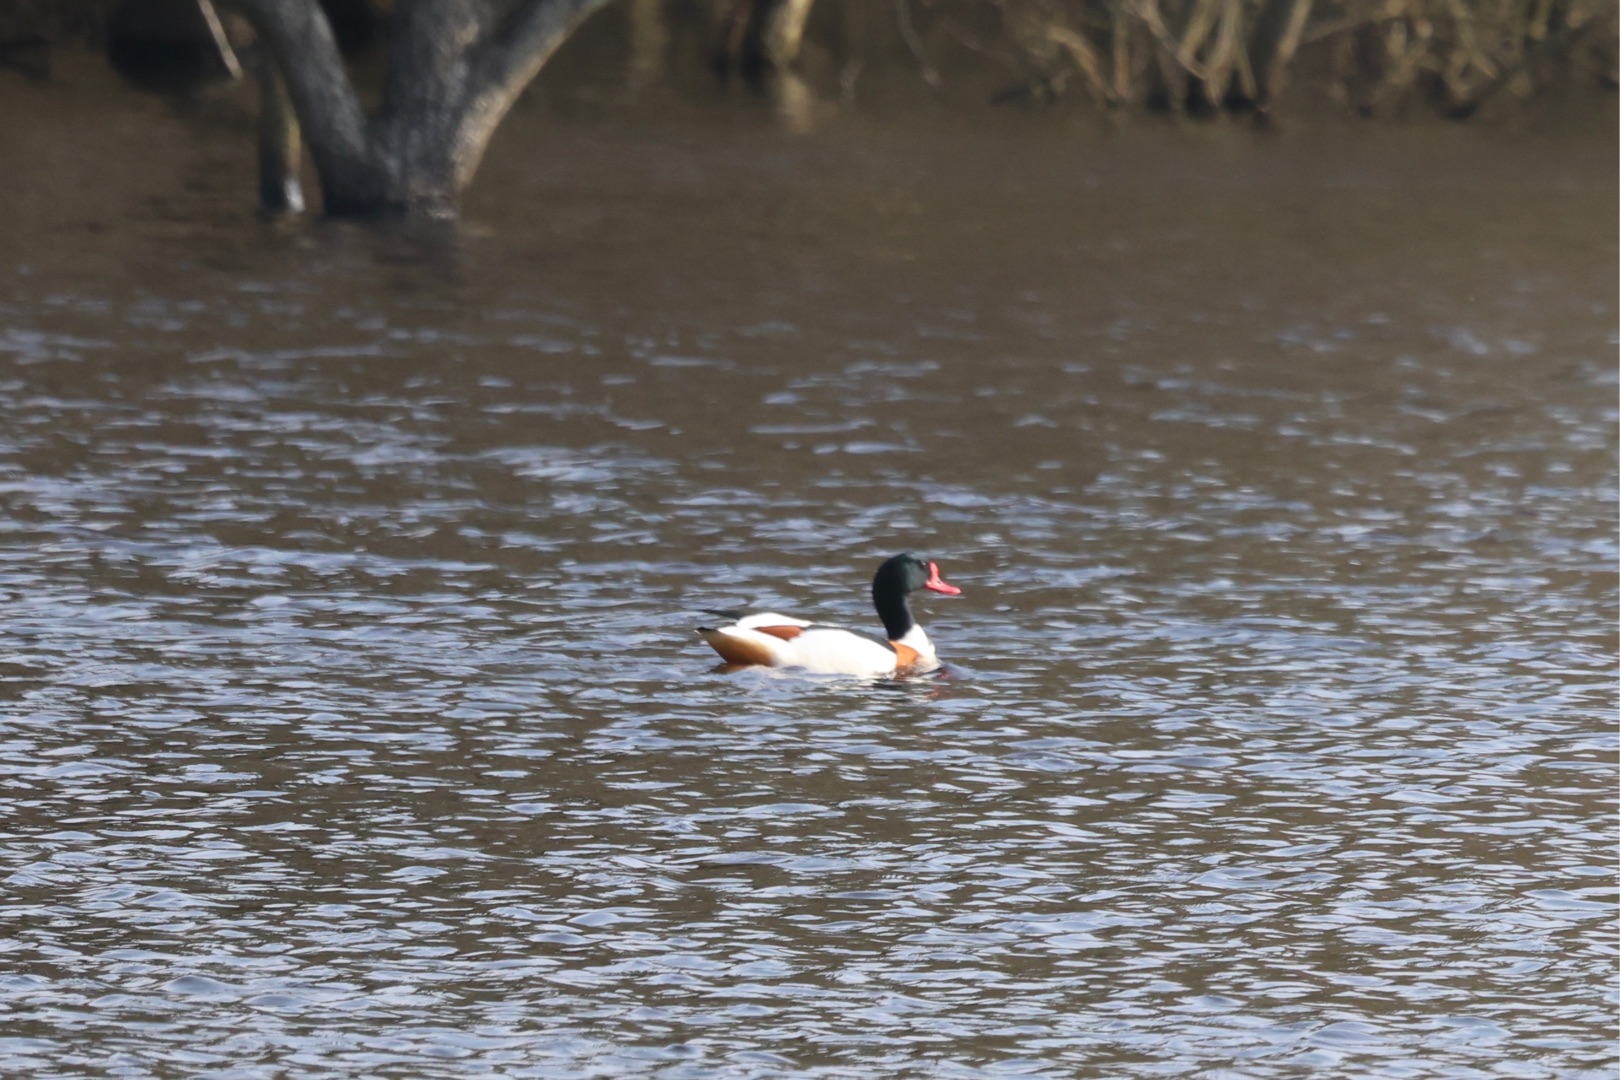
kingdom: Animalia
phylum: Chordata
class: Aves
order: Anseriformes
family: Anatidae
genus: Tadorna
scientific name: Tadorna tadorna
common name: Gravand
